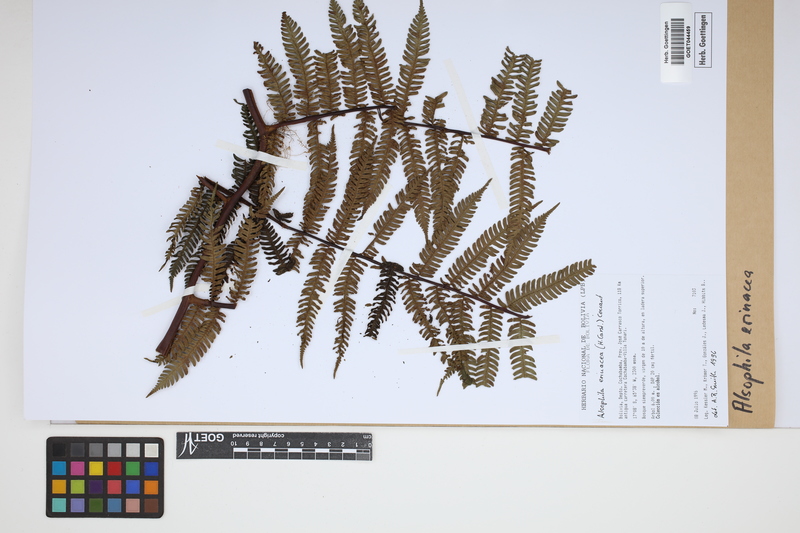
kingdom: Plantae
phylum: Tracheophyta
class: Polypodiopsida
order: Cyatheales
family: Cyatheaceae
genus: Alsophila
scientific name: Alsophila erinacea
